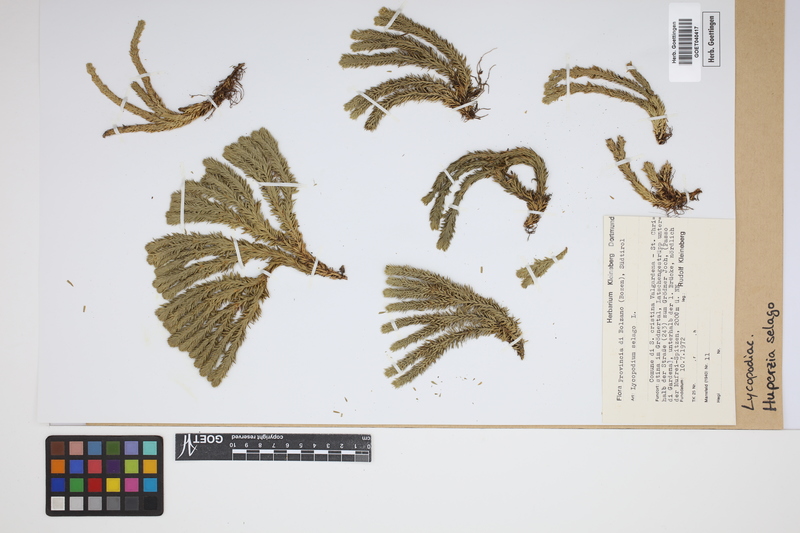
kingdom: Plantae
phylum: Tracheophyta
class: Lycopodiopsida
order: Lycopodiales
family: Lycopodiaceae
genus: Huperzia
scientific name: Huperzia selago
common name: Northern firmoss
